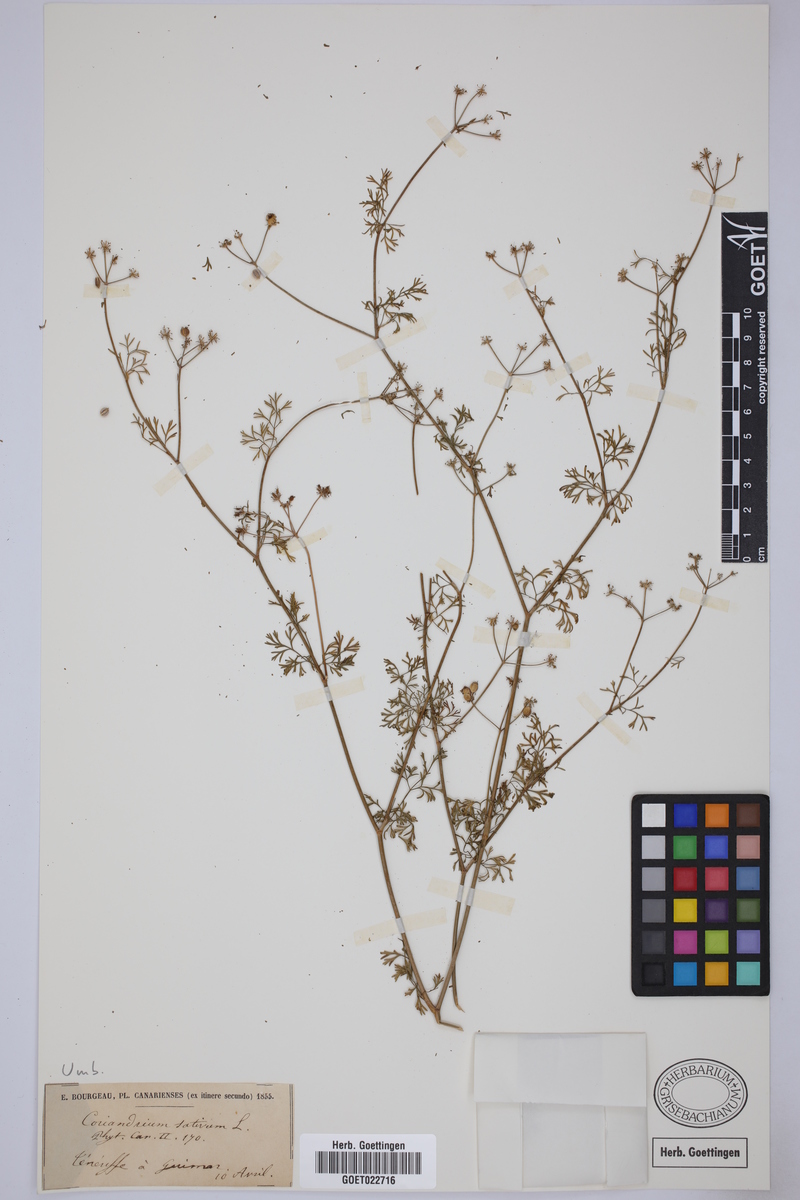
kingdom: Plantae
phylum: Tracheophyta
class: Magnoliopsida
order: Apiales
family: Apiaceae
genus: Coriandrum
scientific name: Coriandrum sativum
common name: Coriander
